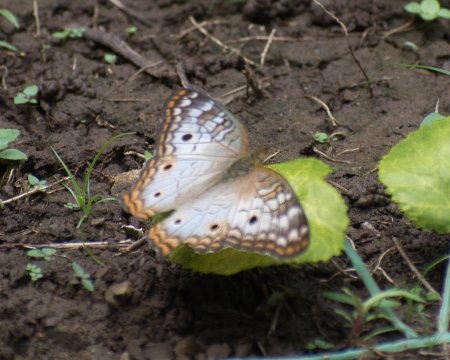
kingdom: Animalia
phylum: Arthropoda
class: Insecta
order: Lepidoptera
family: Nymphalidae
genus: Anartia
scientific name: Anartia jatrophae
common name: White Peacock
